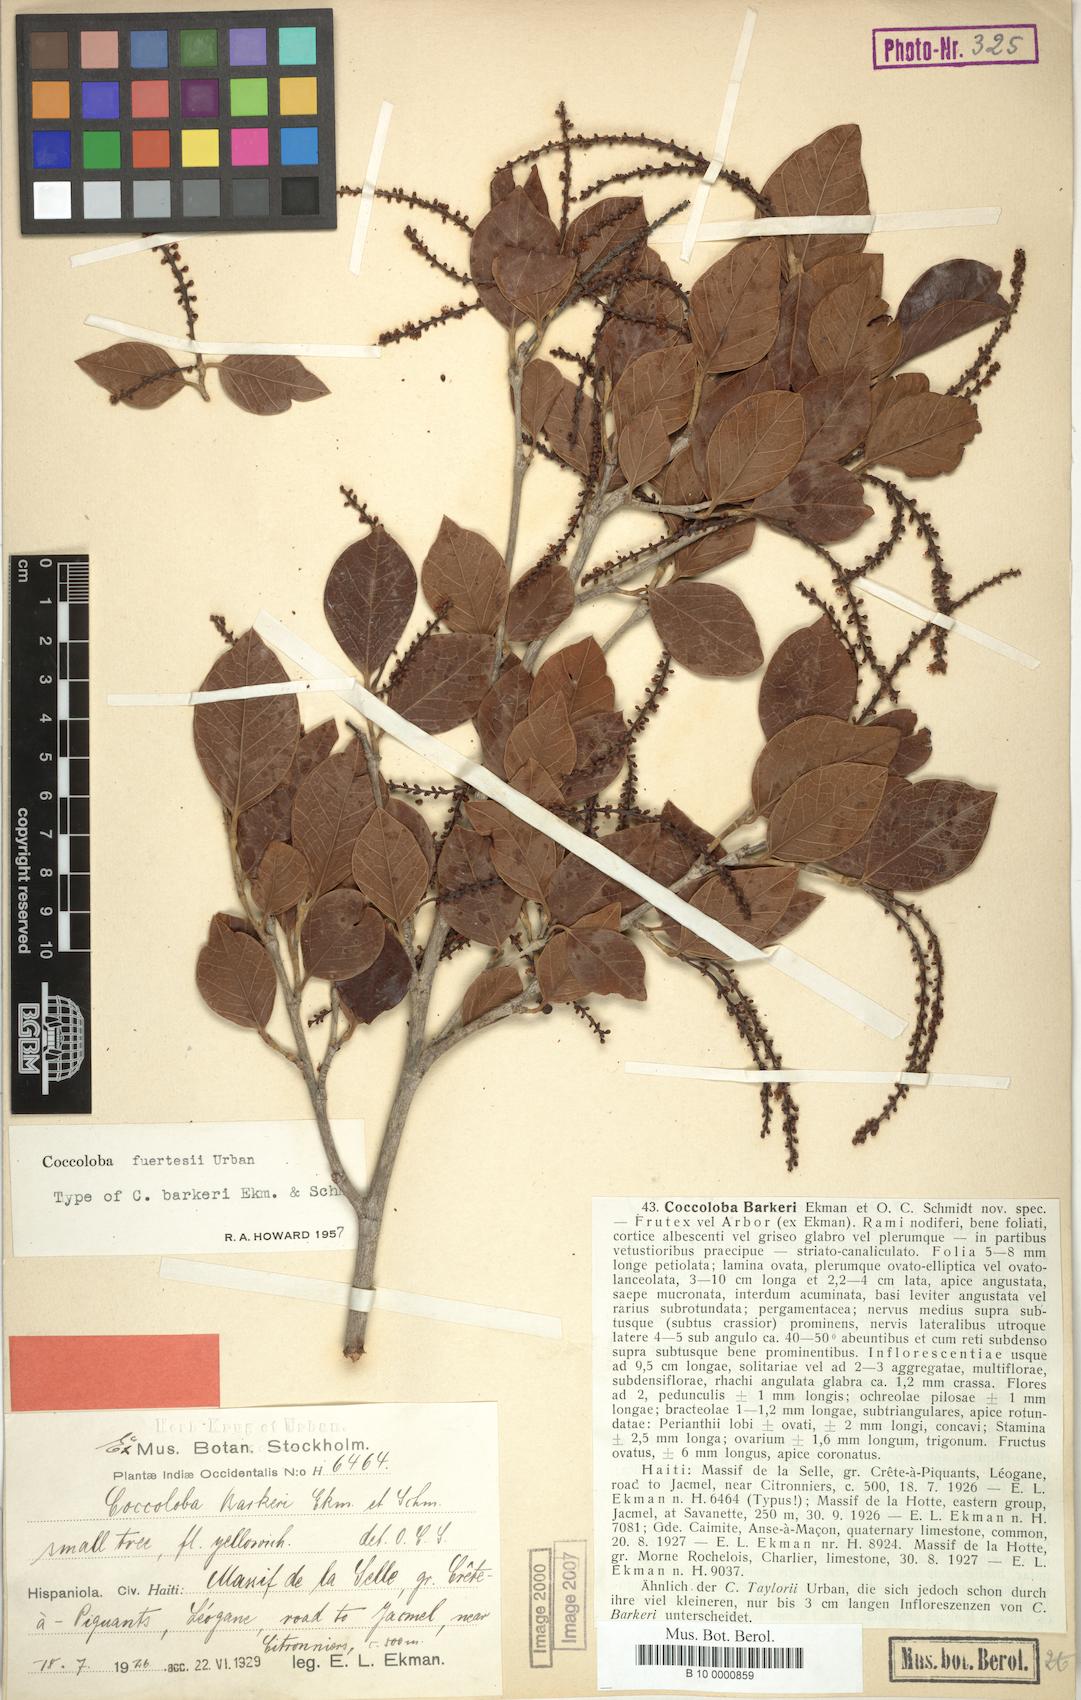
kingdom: Plantae
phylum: Tracheophyta
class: Magnoliopsida
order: Caryophyllales
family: Polygonaceae
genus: Coccoloba
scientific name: Coccoloba fuertesii
